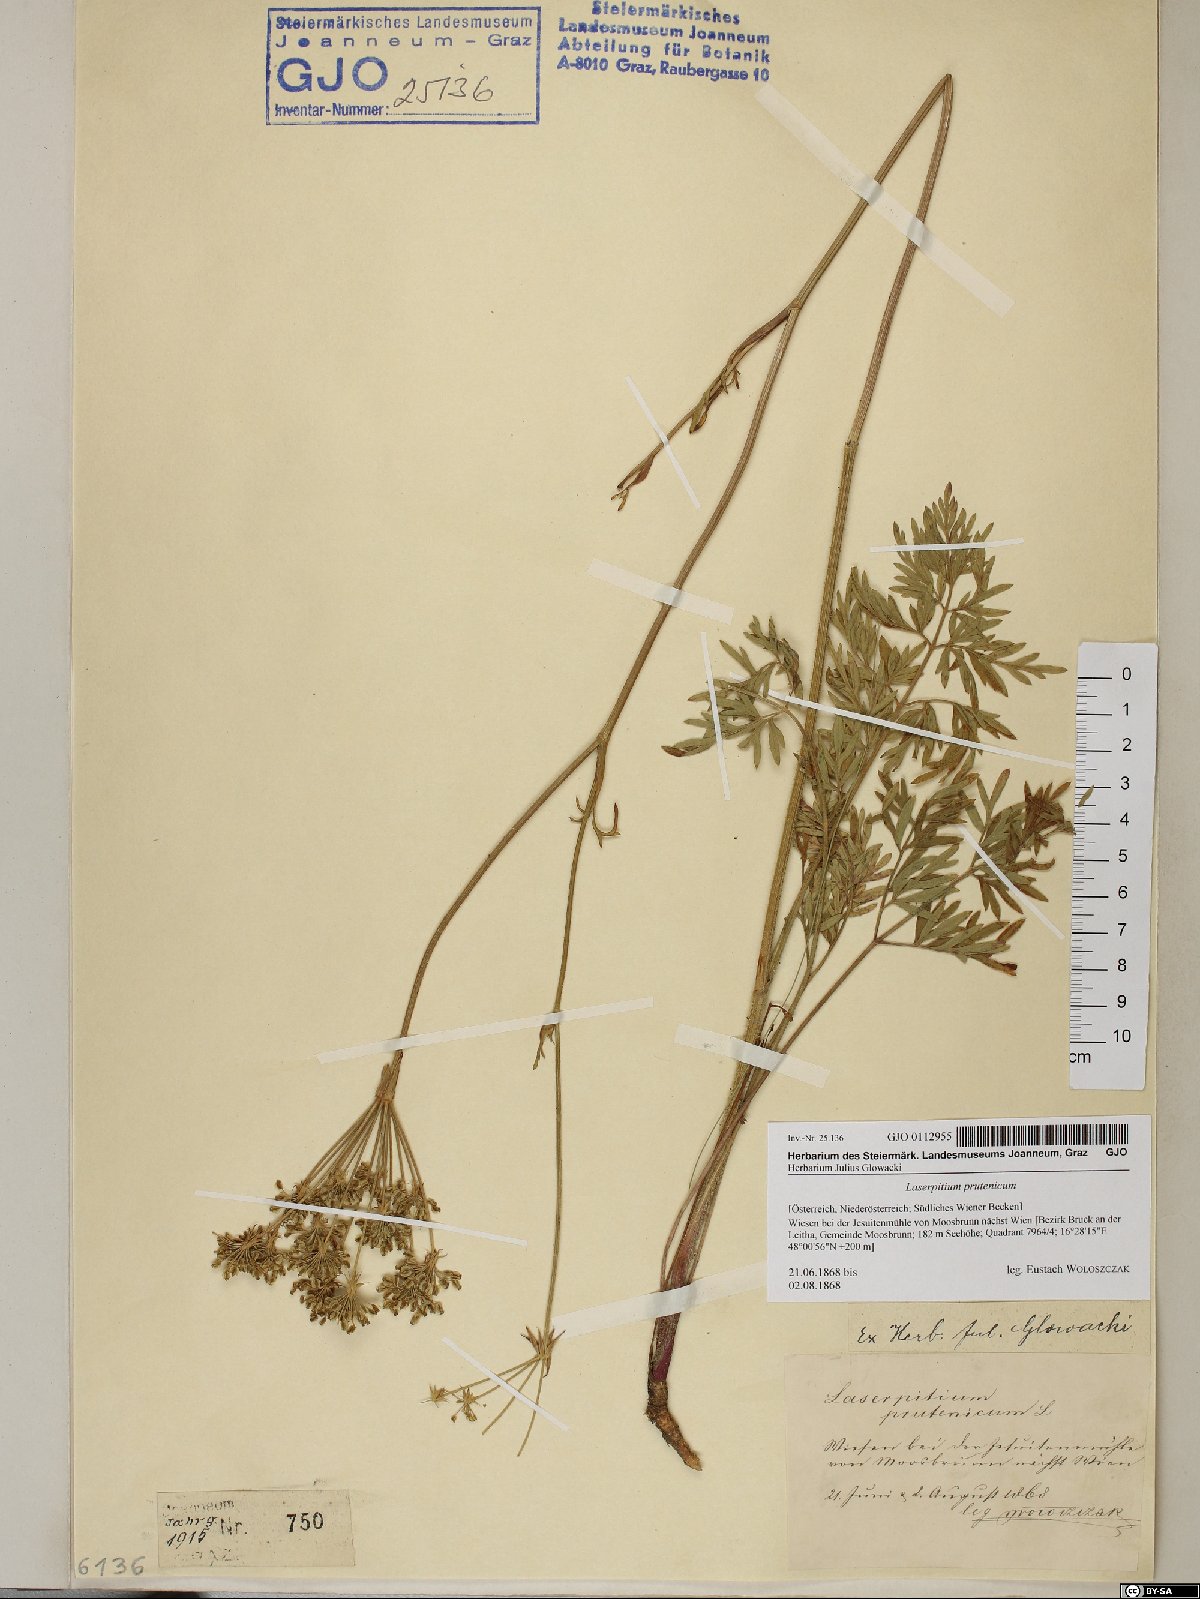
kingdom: Plantae
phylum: Tracheophyta
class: Magnoliopsida
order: Apiales
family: Apiaceae
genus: Silphiodaucus
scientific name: Silphiodaucus prutenicus
